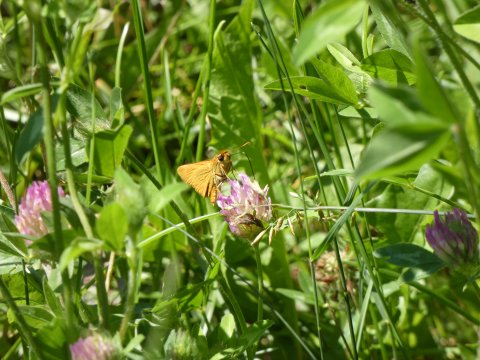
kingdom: Animalia
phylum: Arthropoda
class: Insecta
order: Lepidoptera
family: Hesperiidae
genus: Atrytone
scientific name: Atrytone delaware
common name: Delaware Skipper
